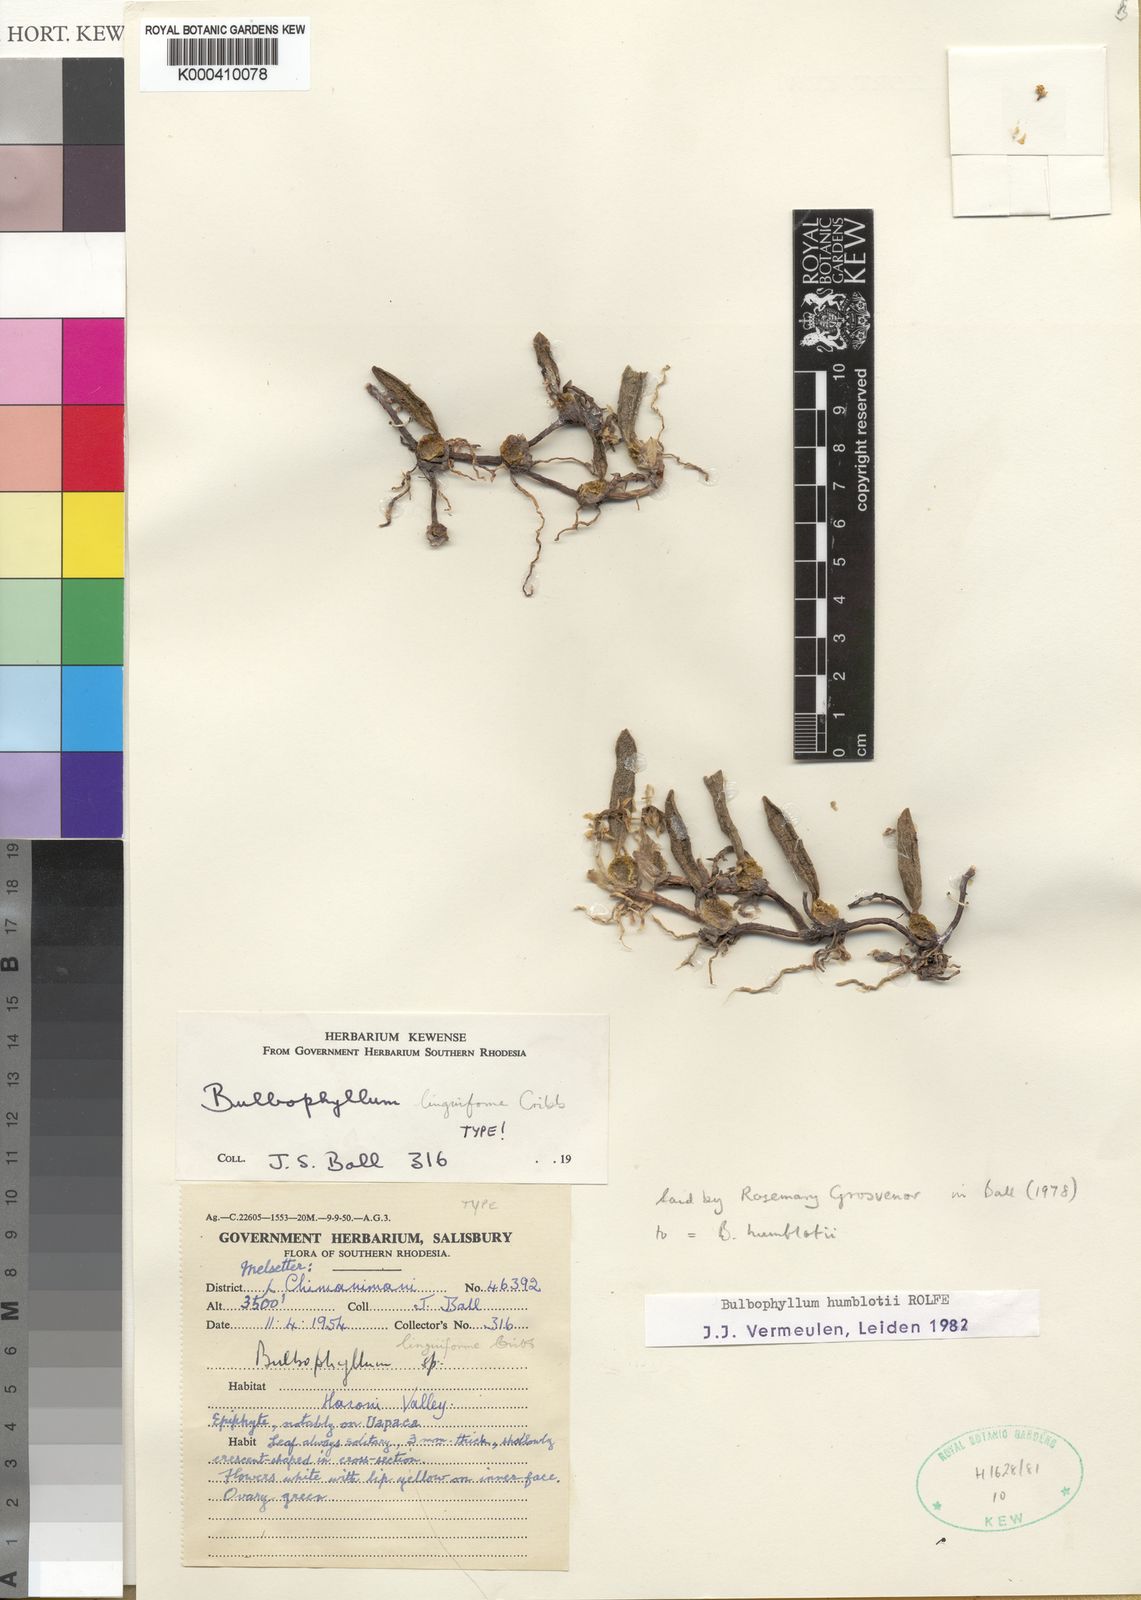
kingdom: Plantae
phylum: Tracheophyta
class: Liliopsida
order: Asparagales
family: Orchidaceae
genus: Bulbophyllum
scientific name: Bulbophyllum humblotii
